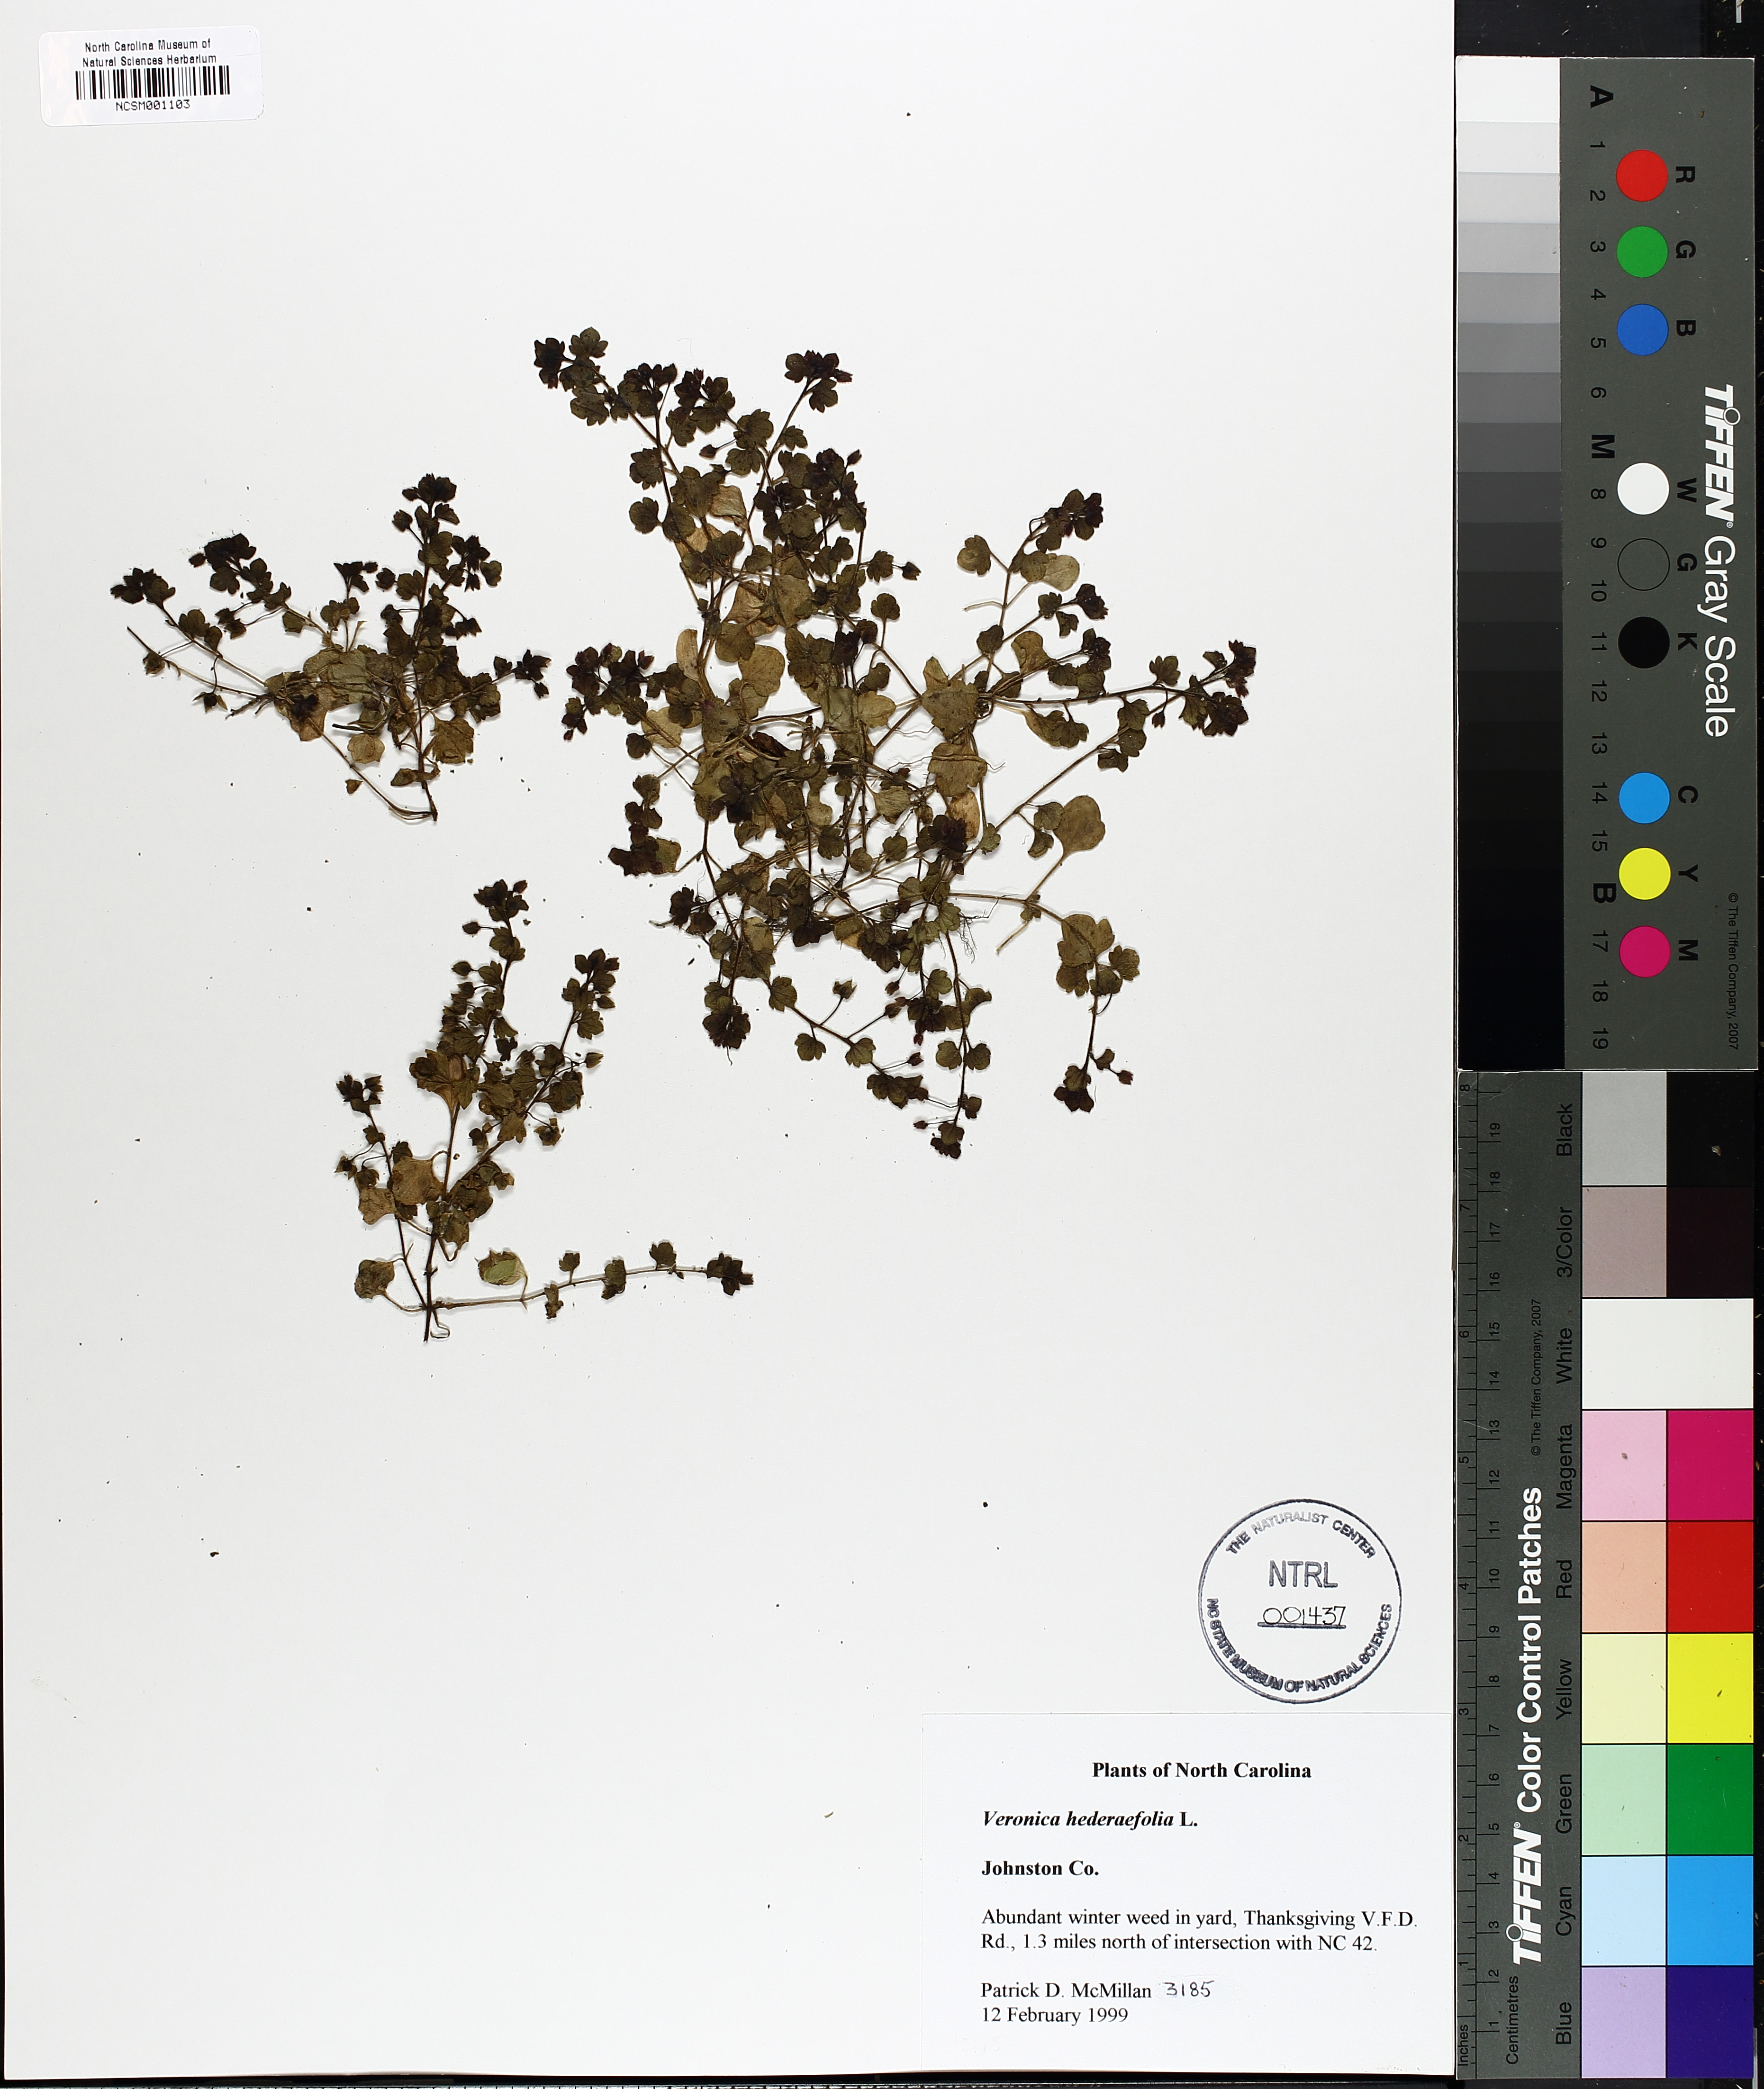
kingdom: Plantae
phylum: Tracheophyta
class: Magnoliopsida
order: Lamiales
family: Plantaginaceae
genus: Veronica
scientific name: Veronica hederifolia
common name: Ivy-leaved speedwell
